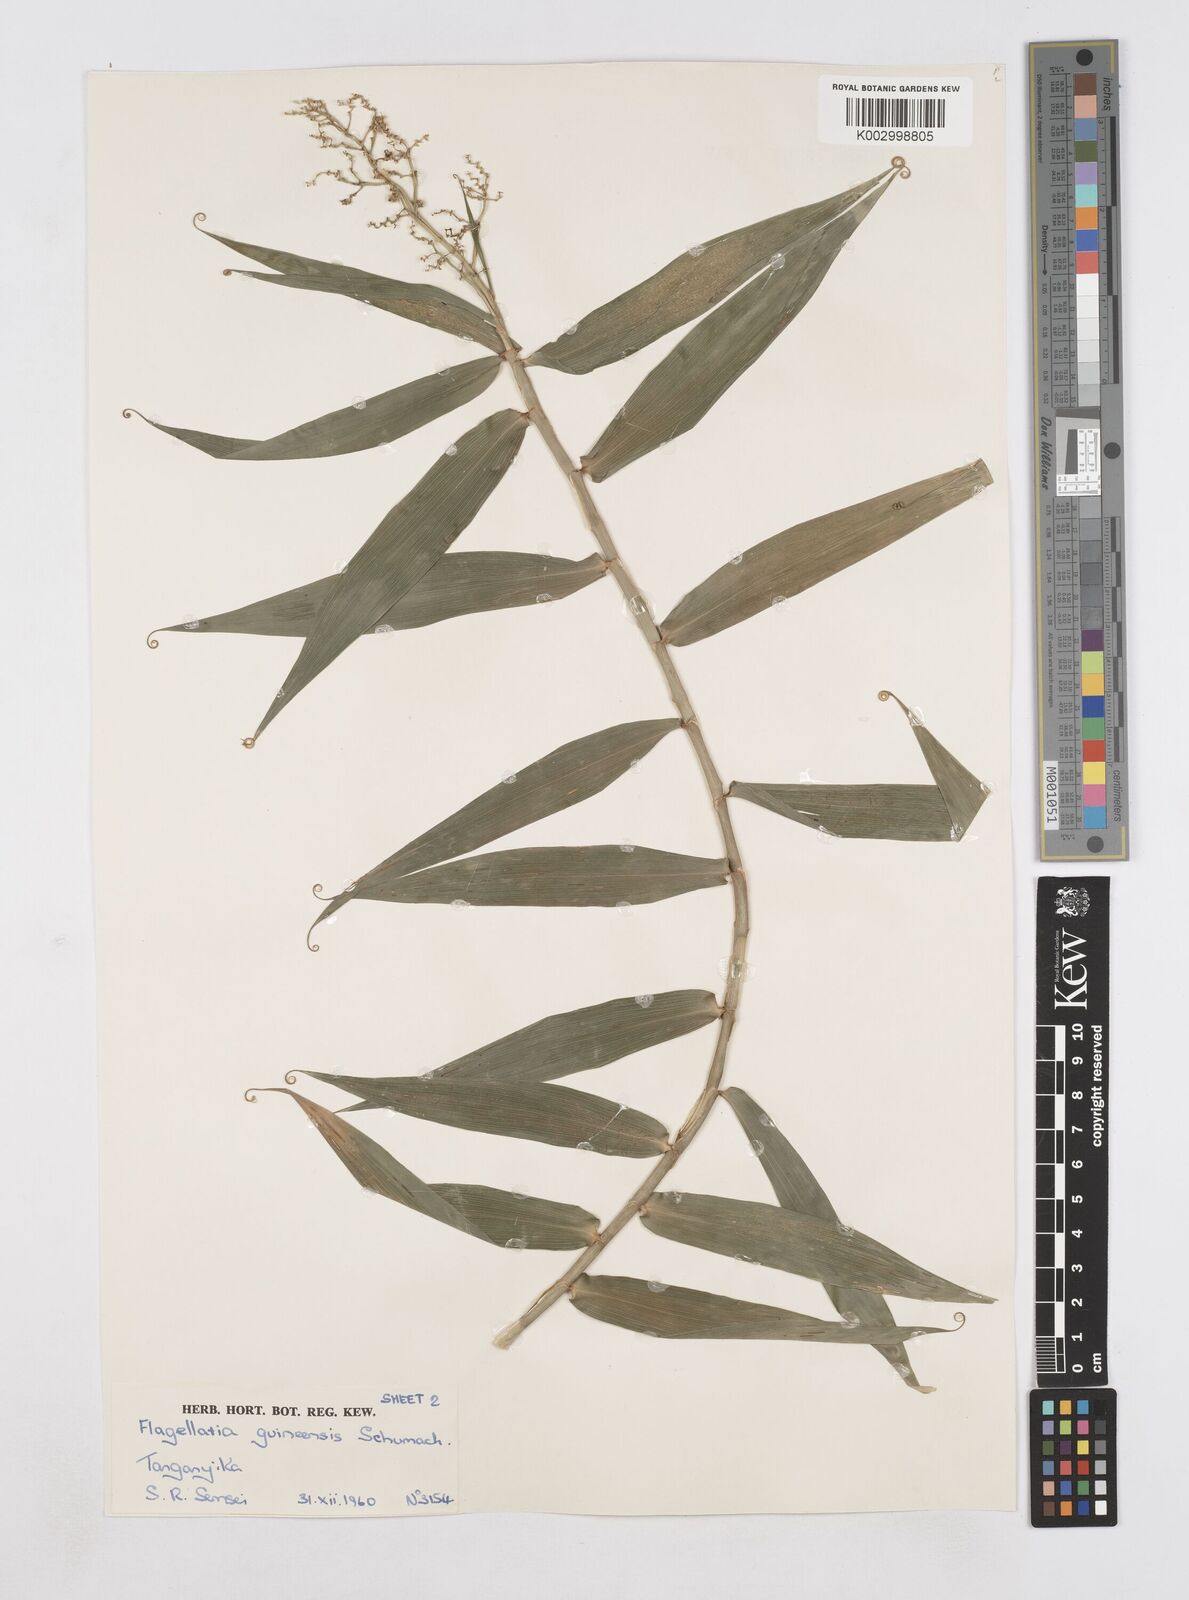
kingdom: Plantae
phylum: Tracheophyta
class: Liliopsida
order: Poales
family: Flagellariaceae
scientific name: Flagellariaceae
